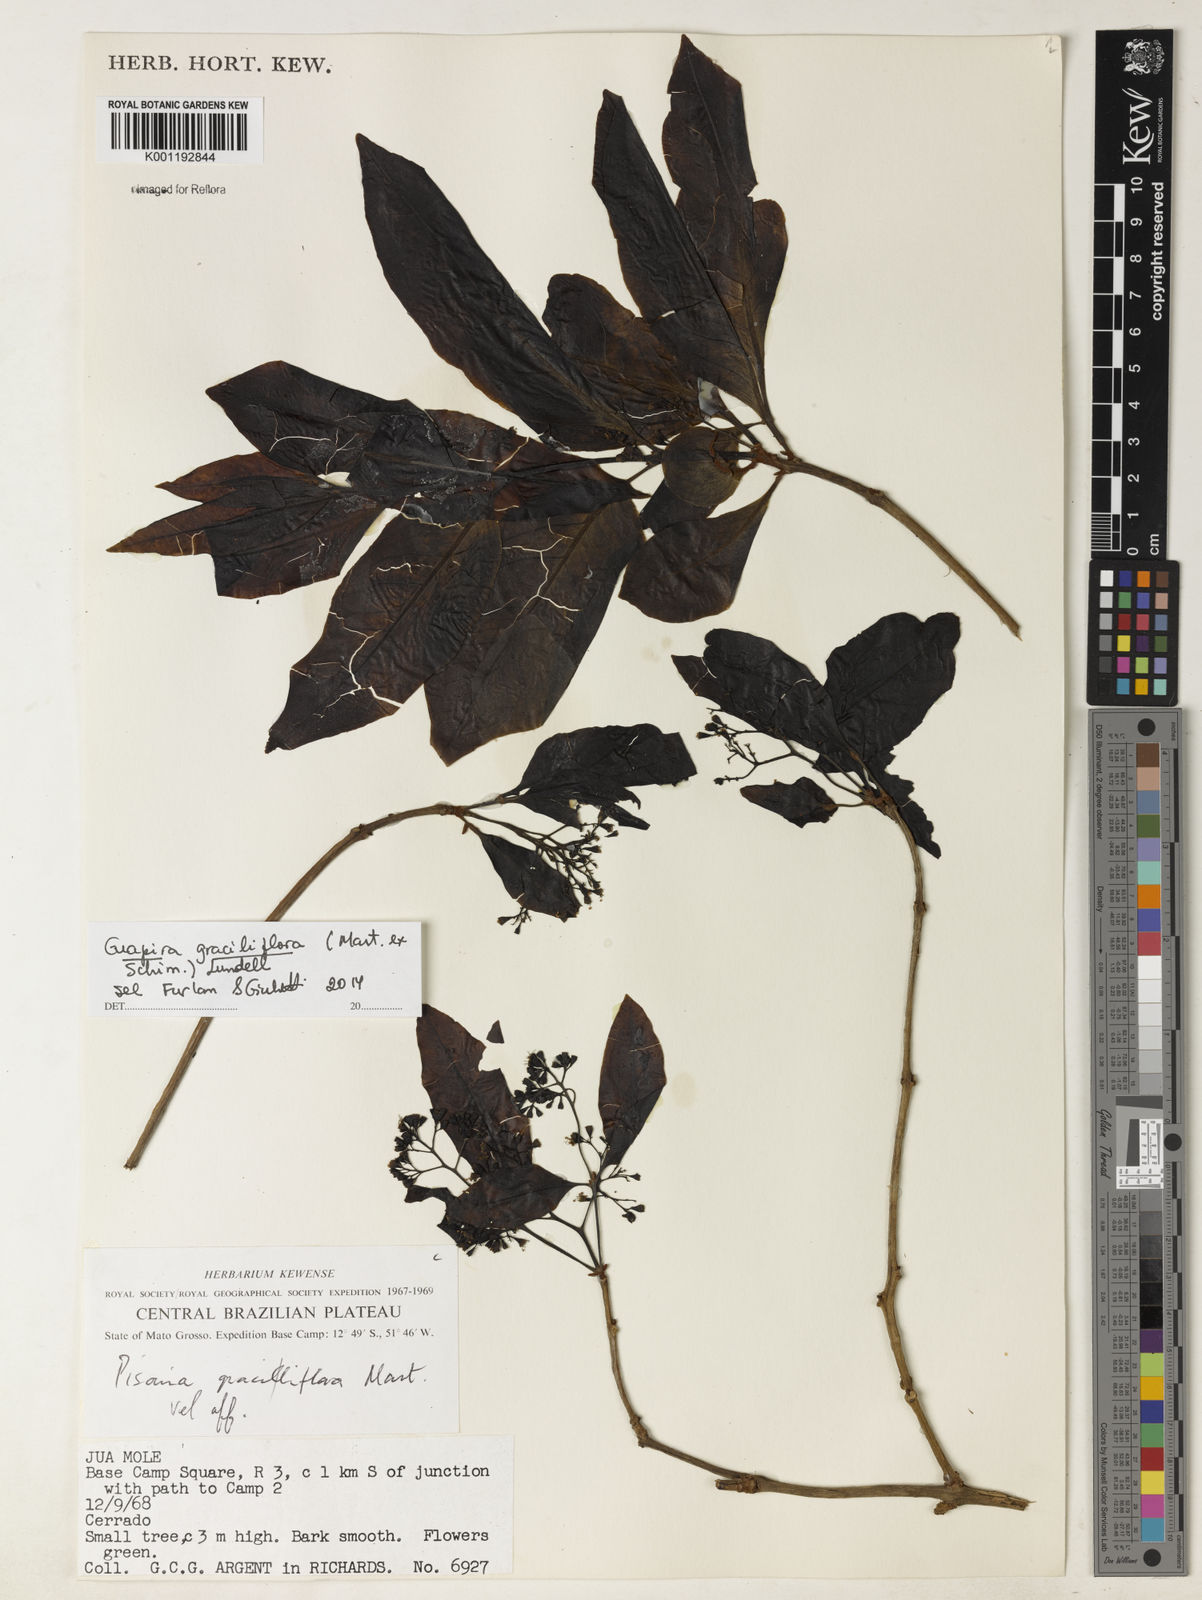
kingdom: Plantae
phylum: Tracheophyta
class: Magnoliopsida
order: Caryophyllales
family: Nyctaginaceae
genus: Guapira
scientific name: Guapira graciliflora
